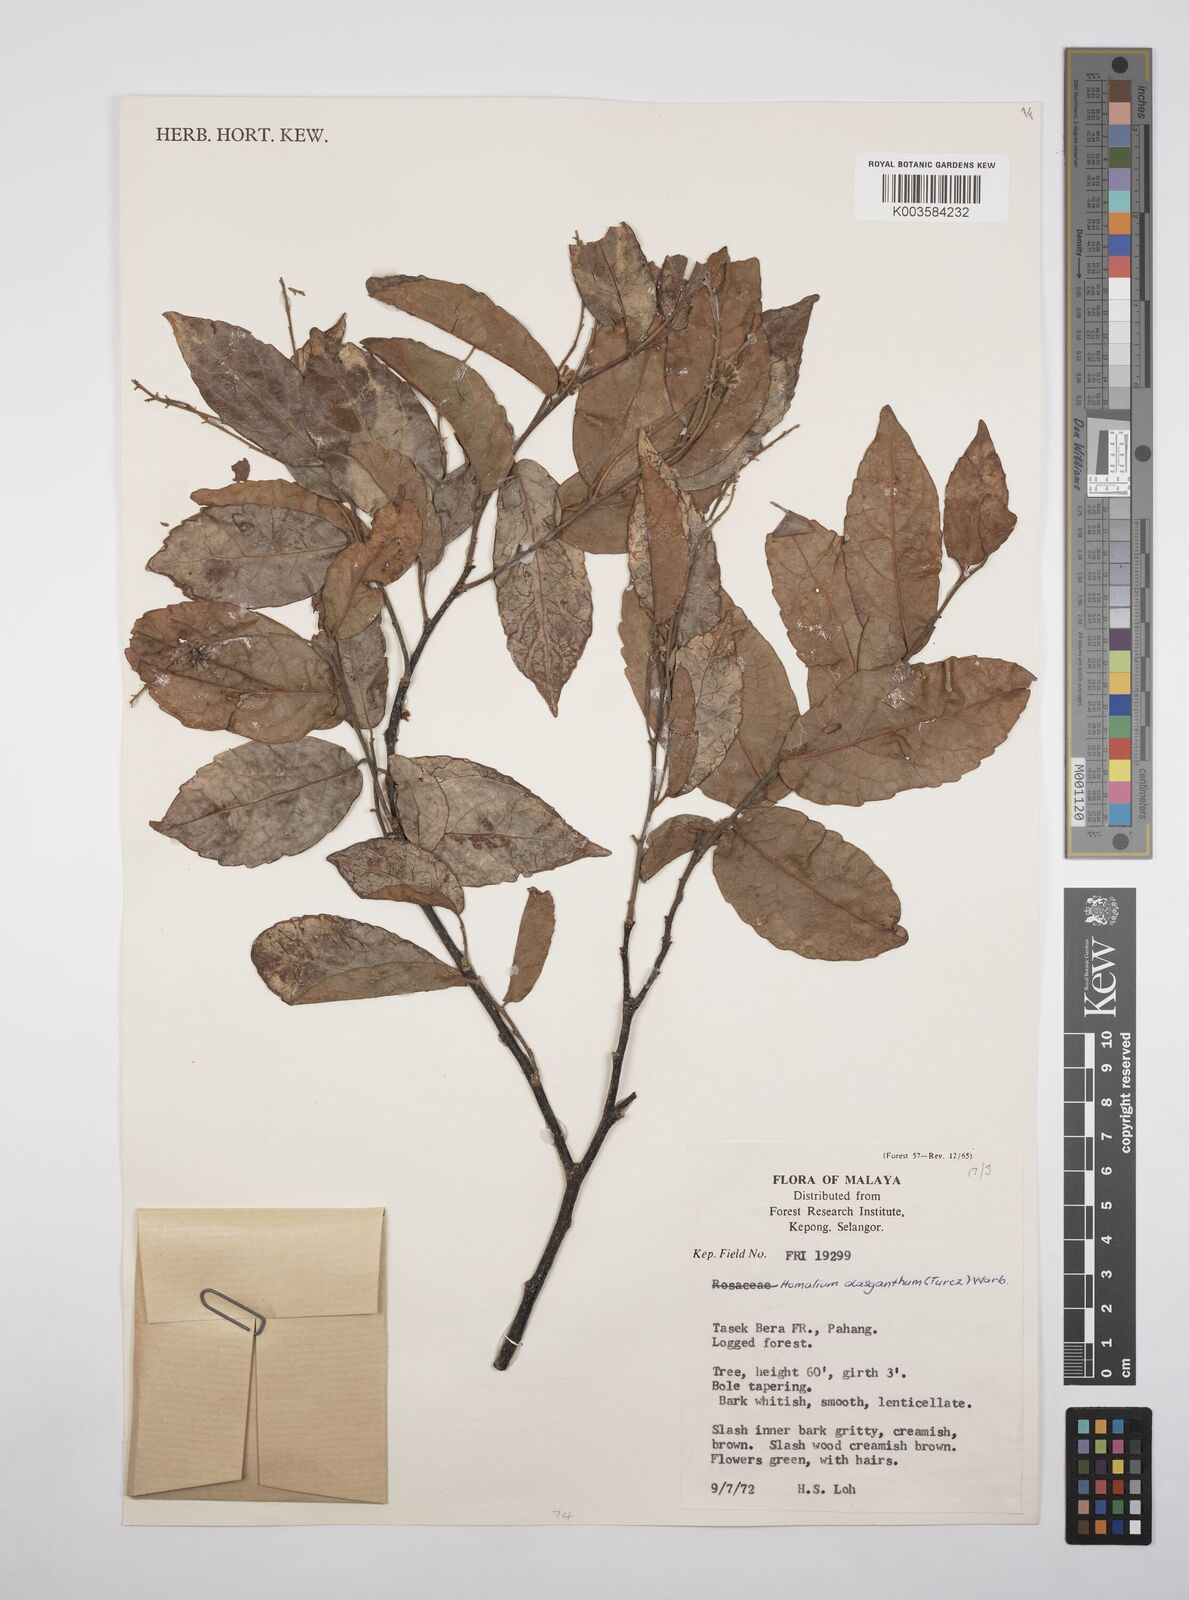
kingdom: Plantae
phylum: Tracheophyta
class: Magnoliopsida
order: Malpighiales
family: Salicaceae
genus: Homalium
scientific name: Homalium dasyanthum
